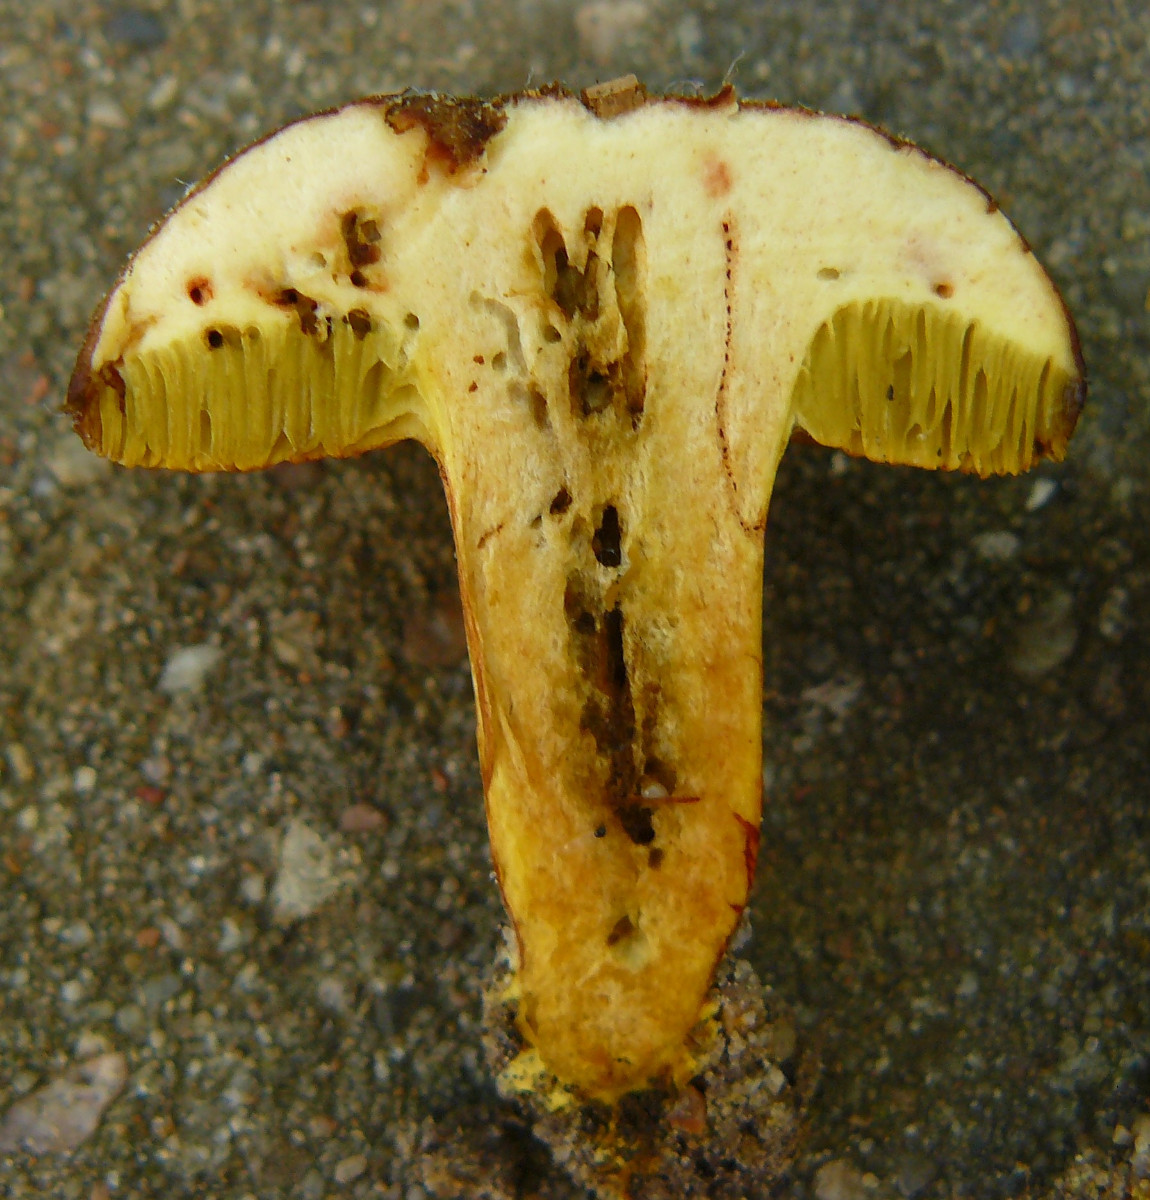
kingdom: Fungi
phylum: Basidiomycota
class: Agaricomycetes
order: Boletales
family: Boletaceae
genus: Xerocomellus
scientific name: Xerocomellus
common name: dværgrørhat
